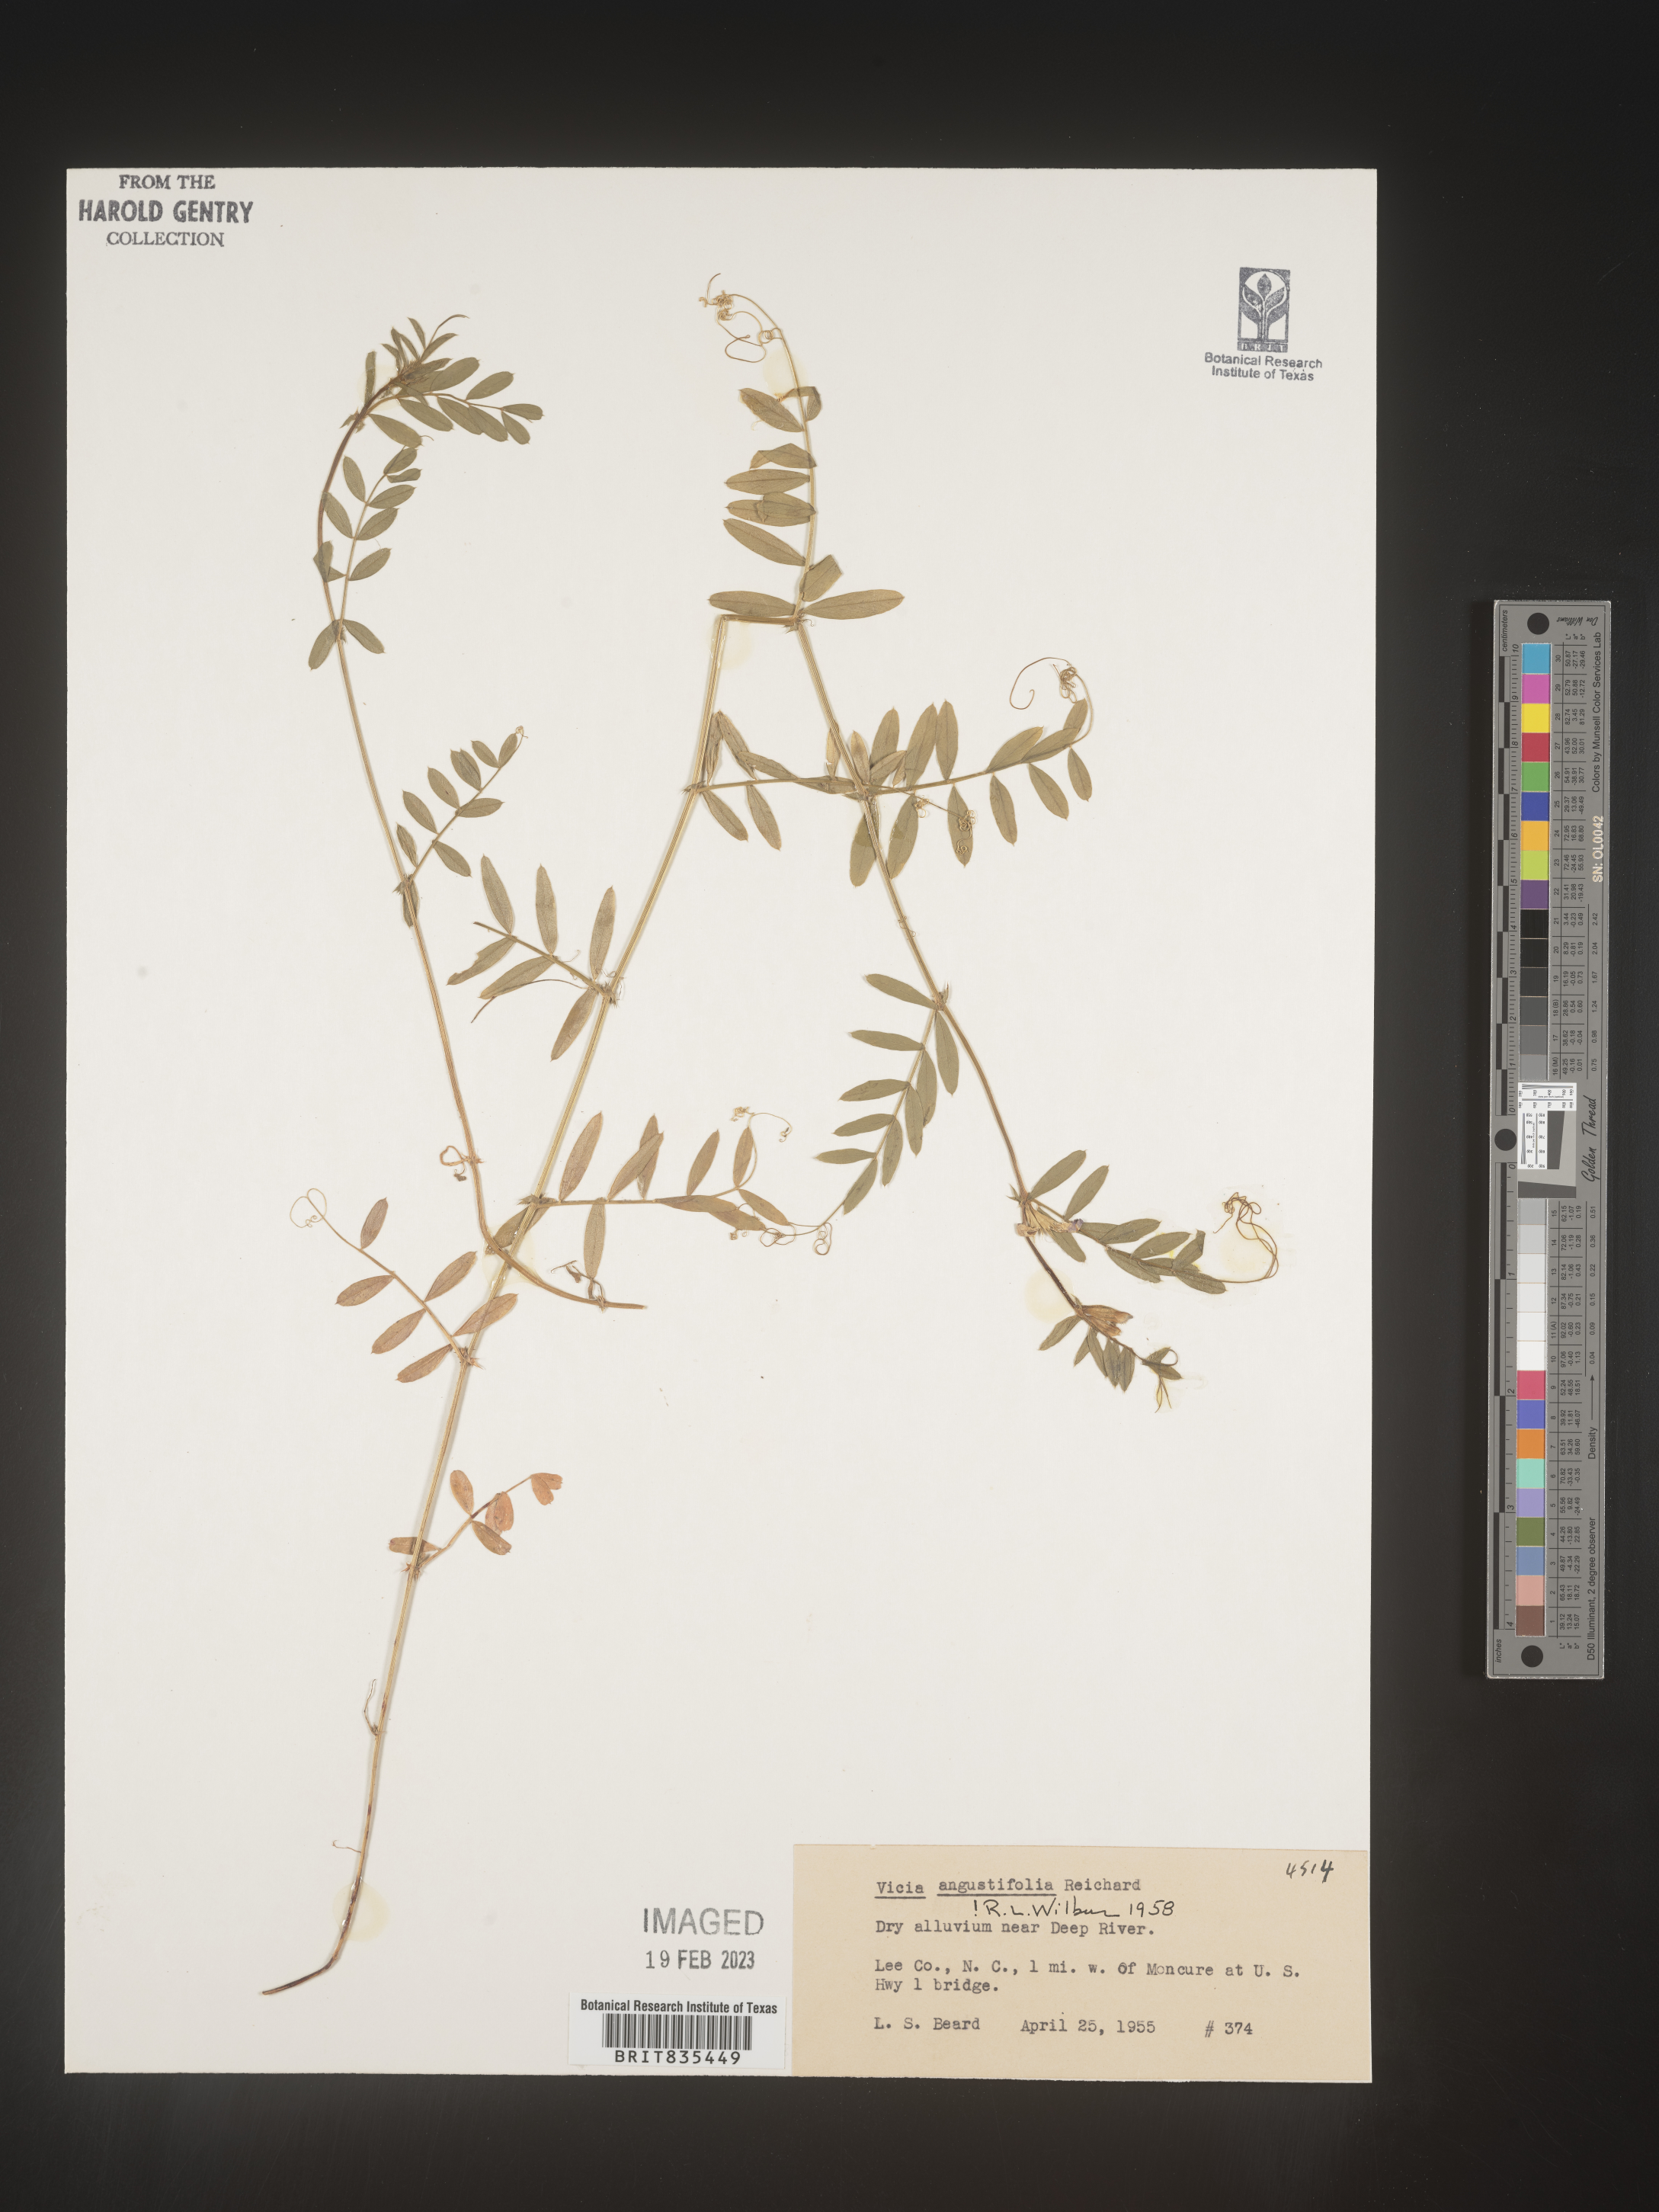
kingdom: Plantae
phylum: Tracheophyta
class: Magnoliopsida
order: Fabales
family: Fabaceae
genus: Vicia
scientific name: Vicia sativa
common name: Garden vetch
